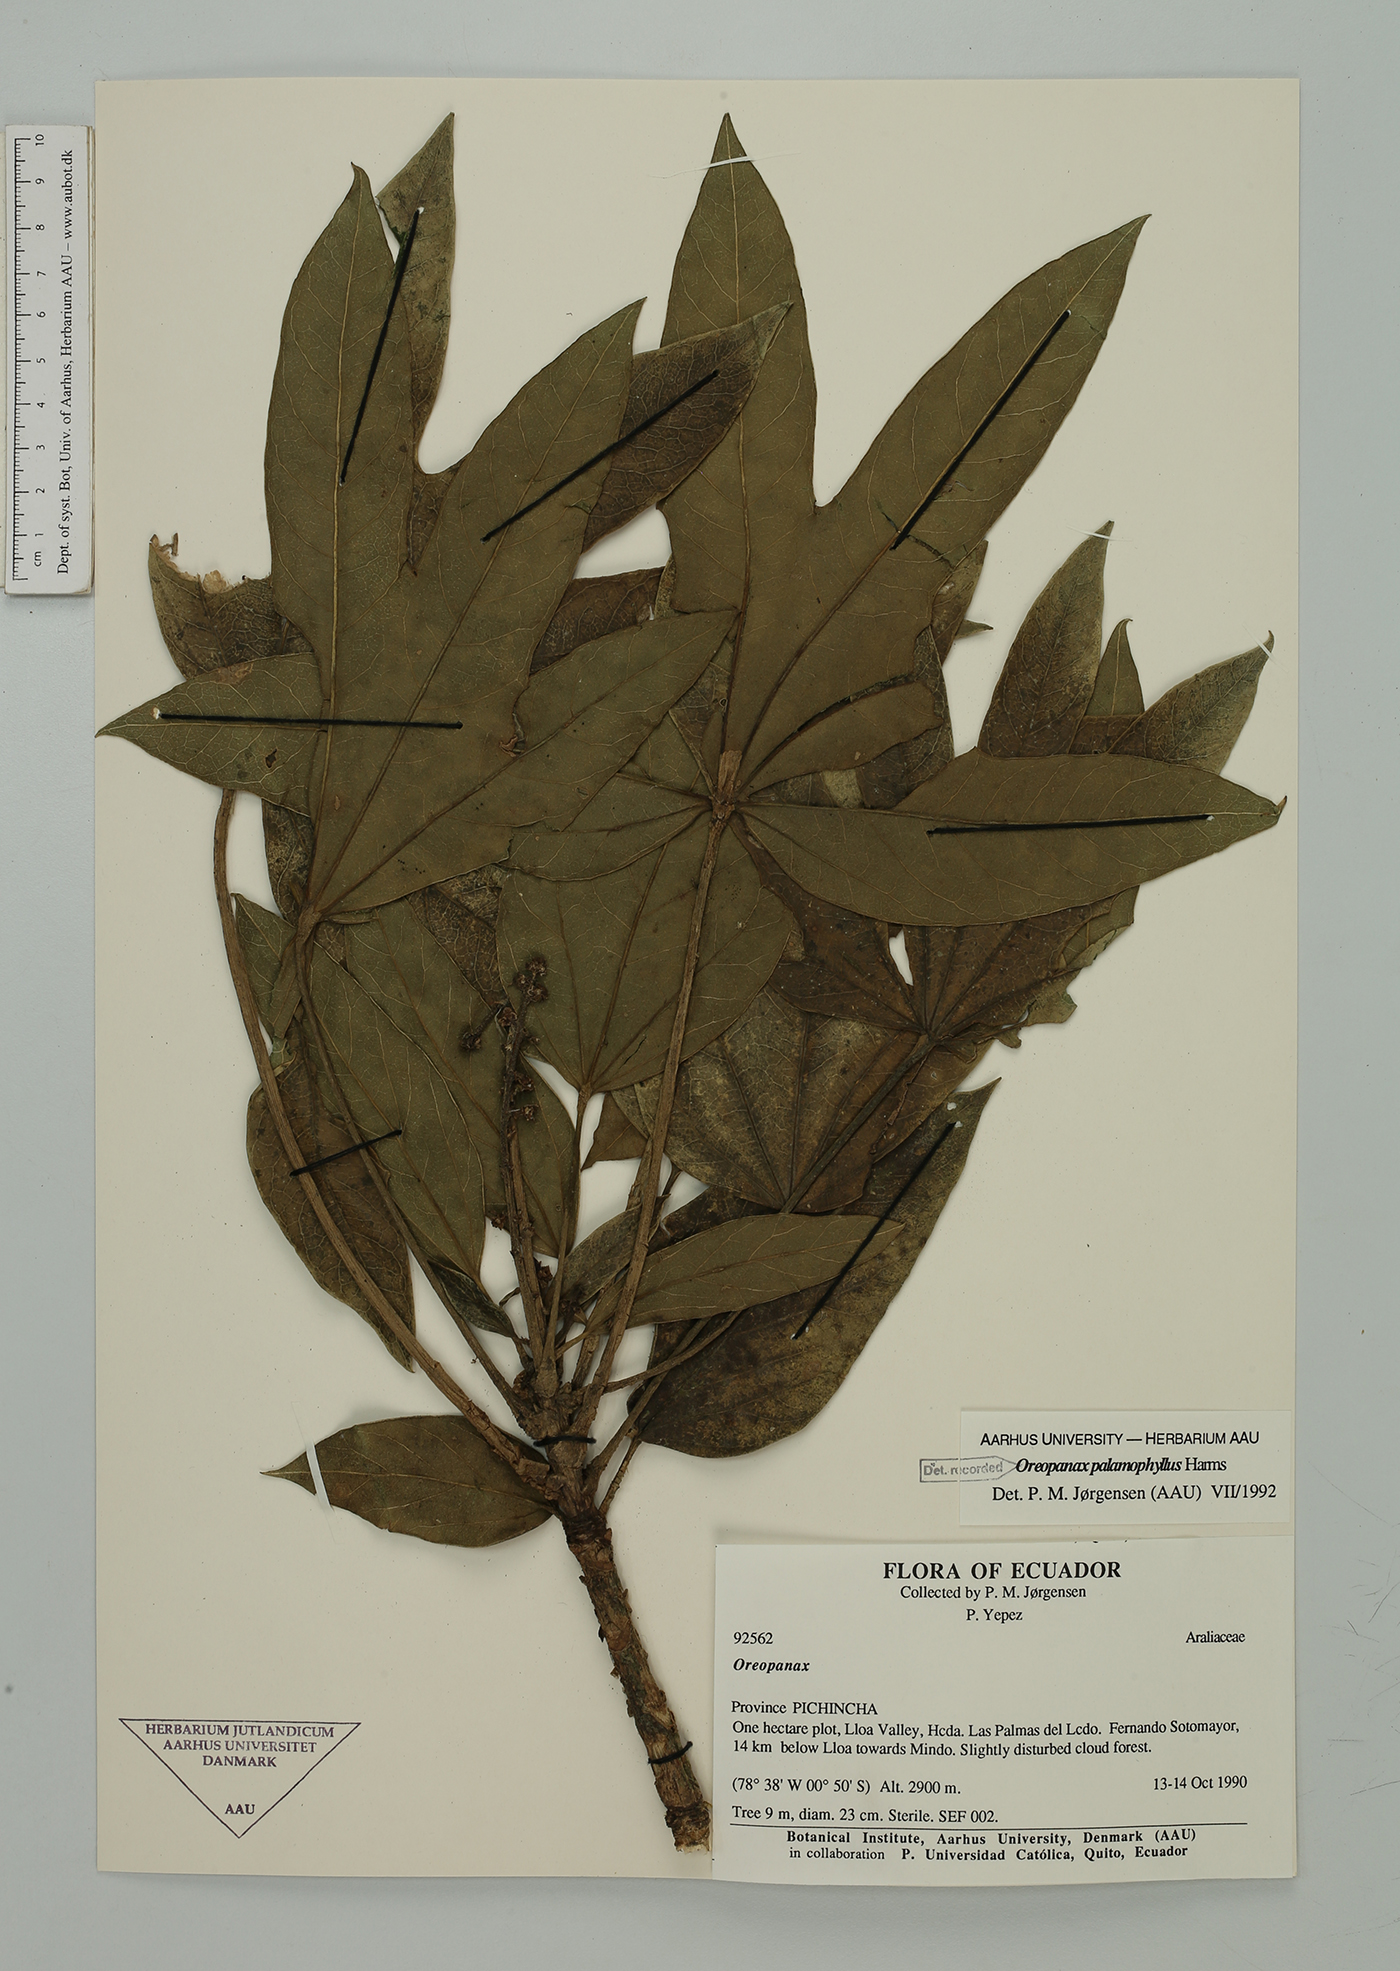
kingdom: Plantae
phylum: Tracheophyta
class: Magnoliopsida
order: Apiales
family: Araliaceae
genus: Oreopanax
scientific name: Oreopanax palamophyllus
